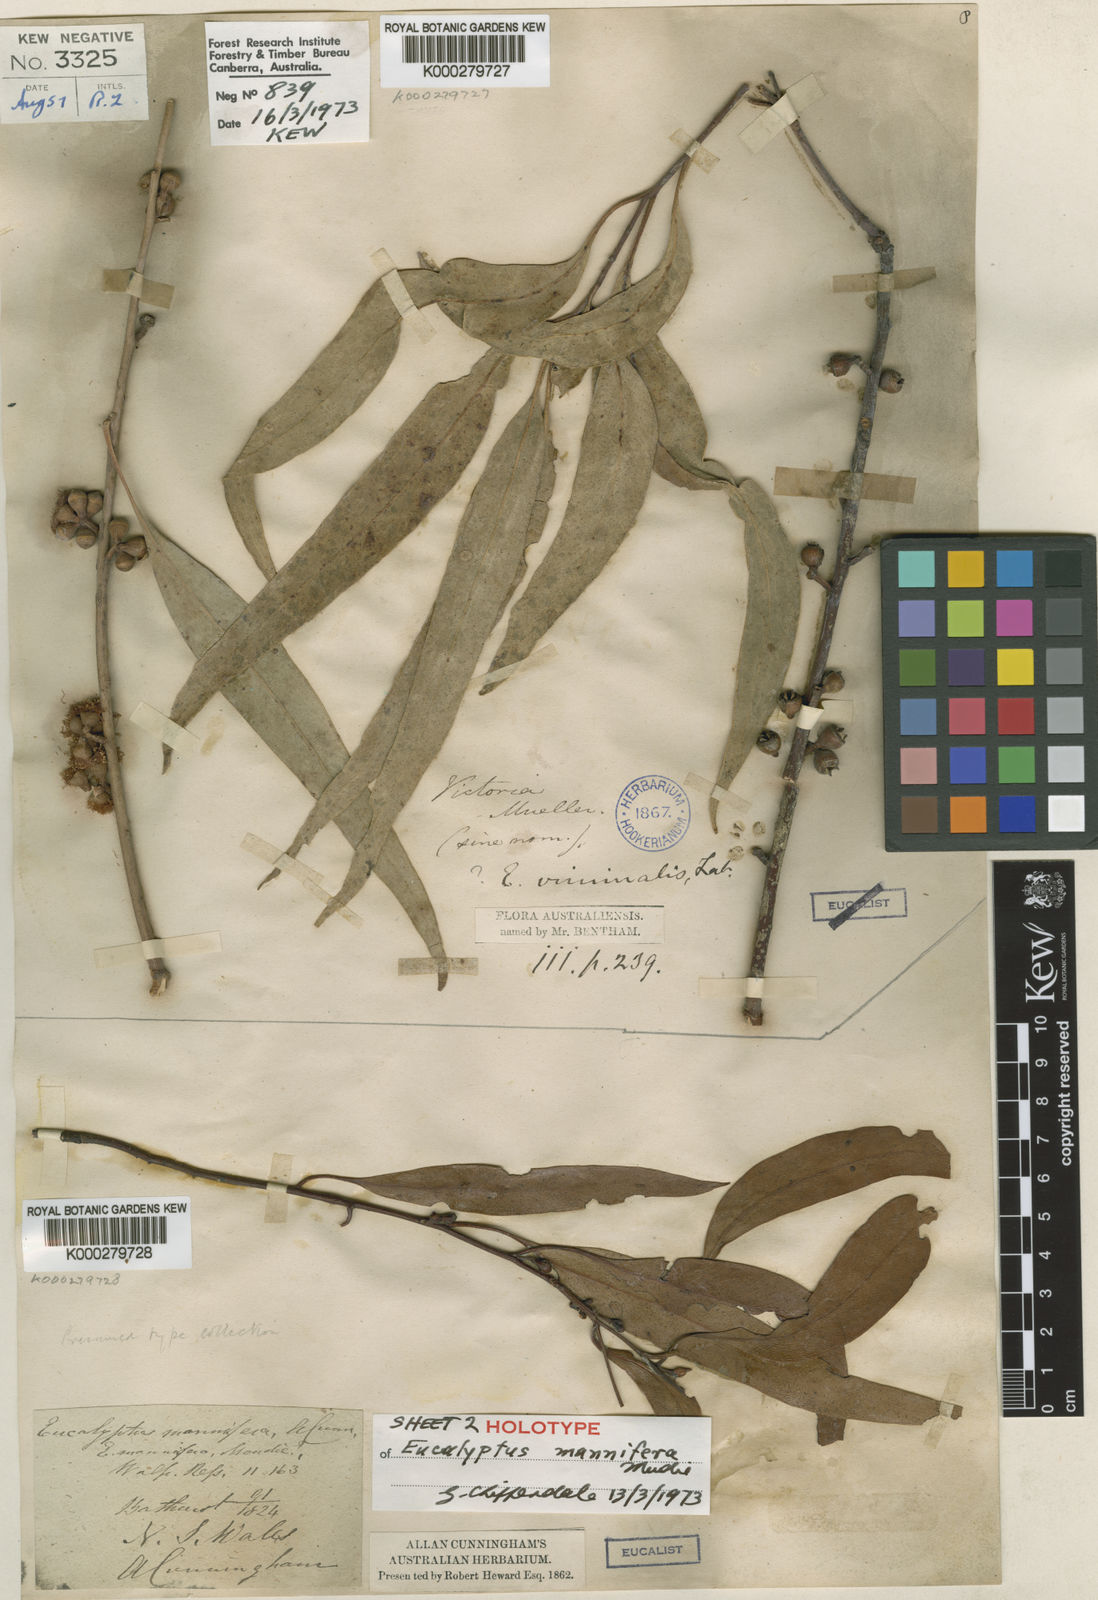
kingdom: Plantae
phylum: Tracheophyta
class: Magnoliopsida
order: Myrtales
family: Myrtaceae
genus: Eucalyptus
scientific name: Eucalyptus mannifera
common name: Manna gum
